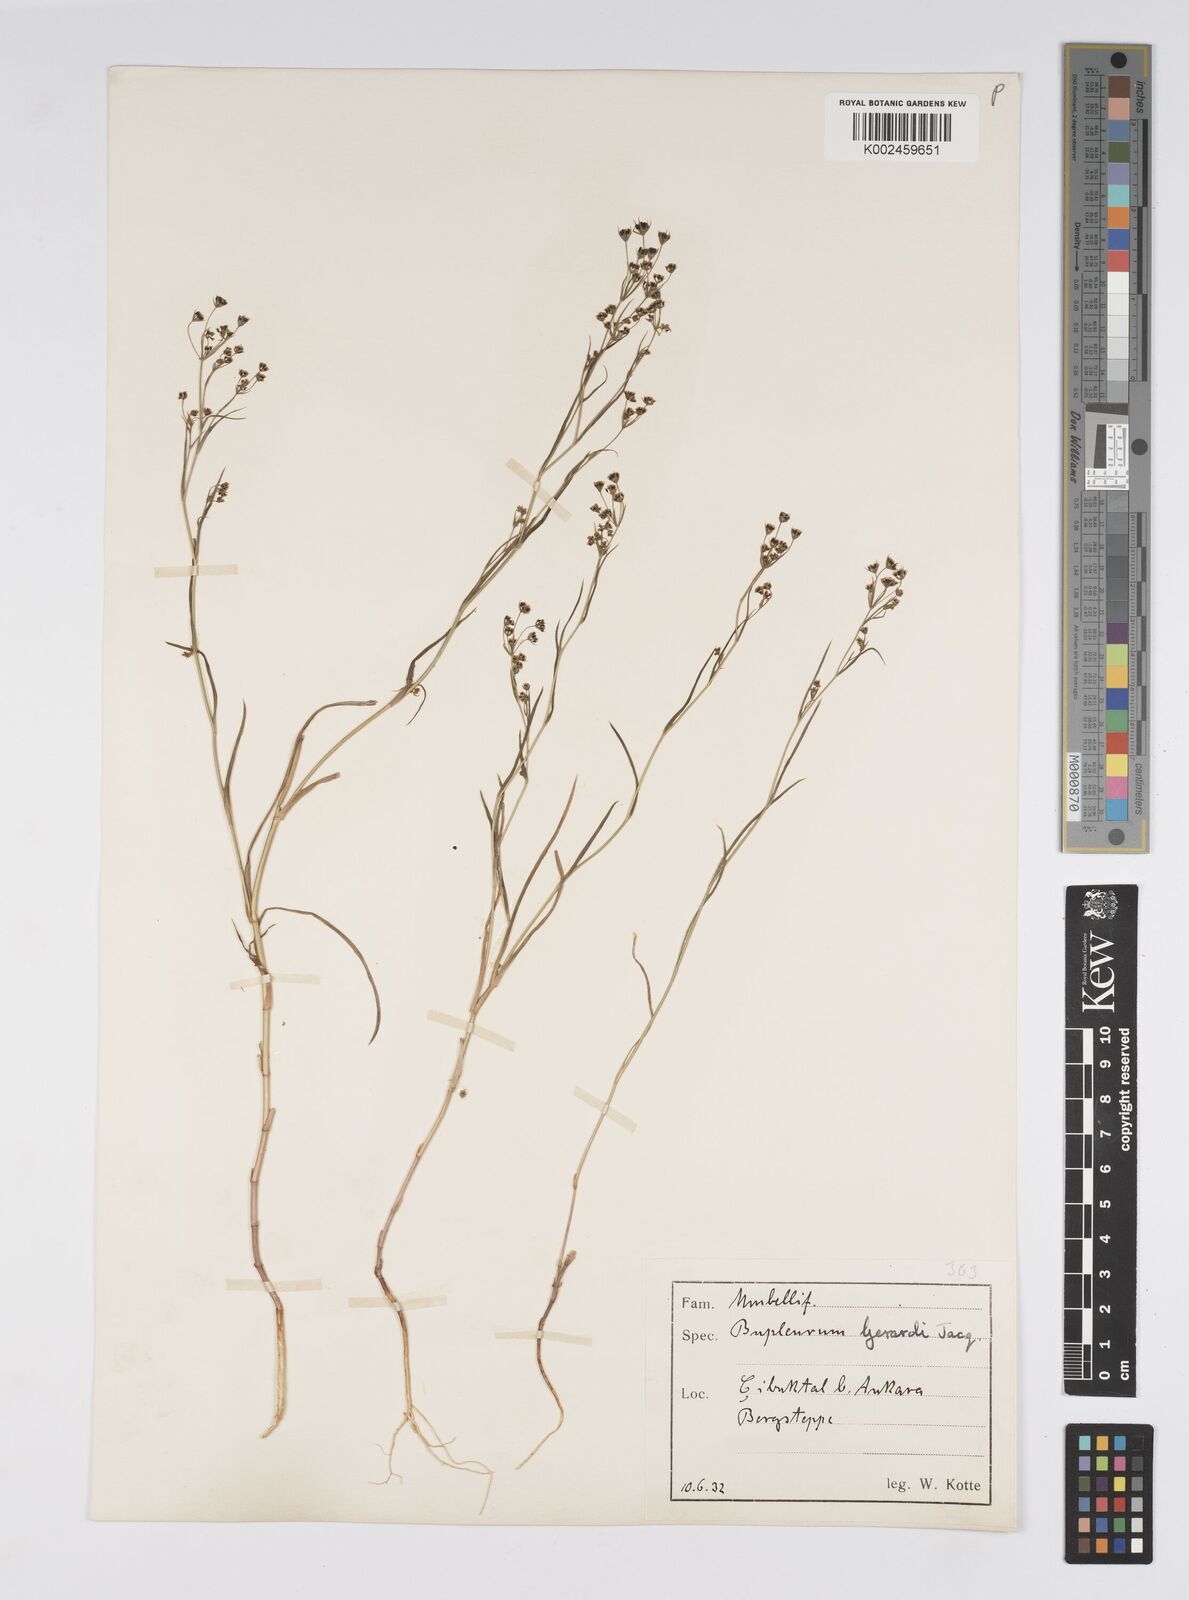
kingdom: Plantae
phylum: Tracheophyta
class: Magnoliopsida
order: Apiales
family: Apiaceae
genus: Bupleurum
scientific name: Bupleurum gerardi
